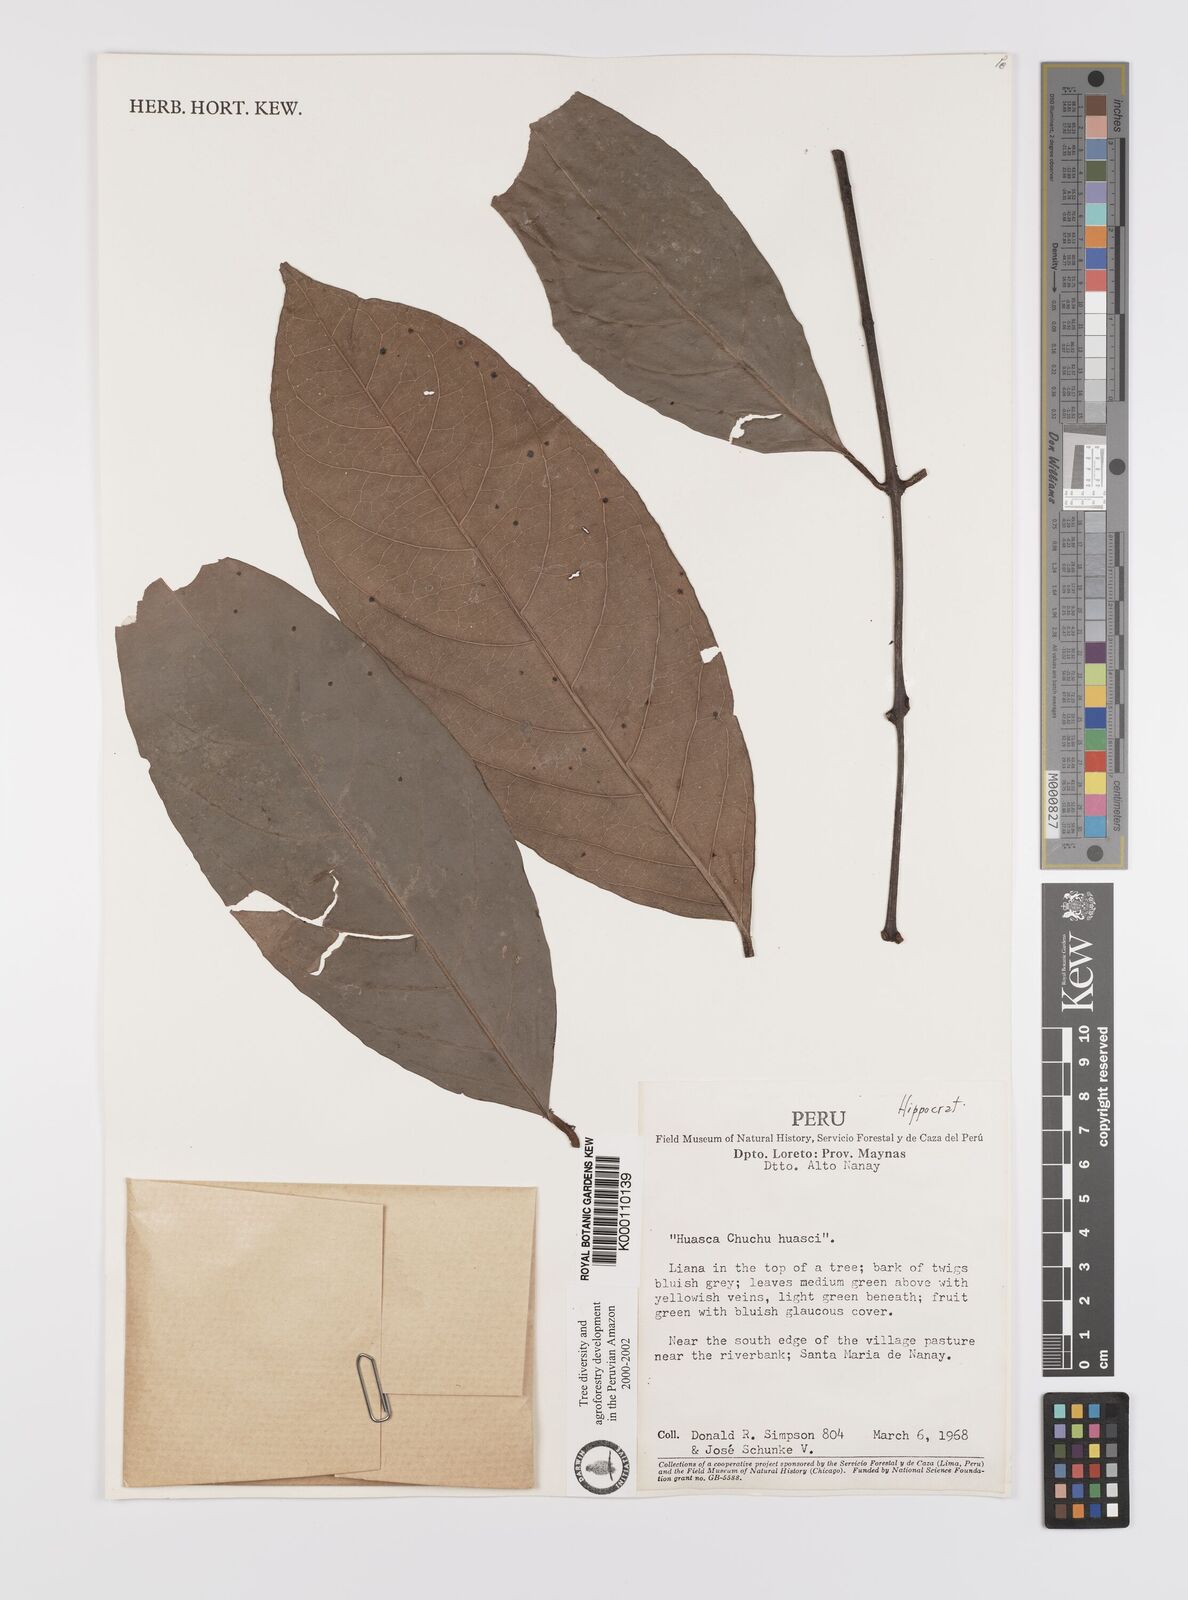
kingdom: Plantae
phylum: Tracheophyta
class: Magnoliopsida
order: Celastrales
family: Celastraceae
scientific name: Celastraceae
